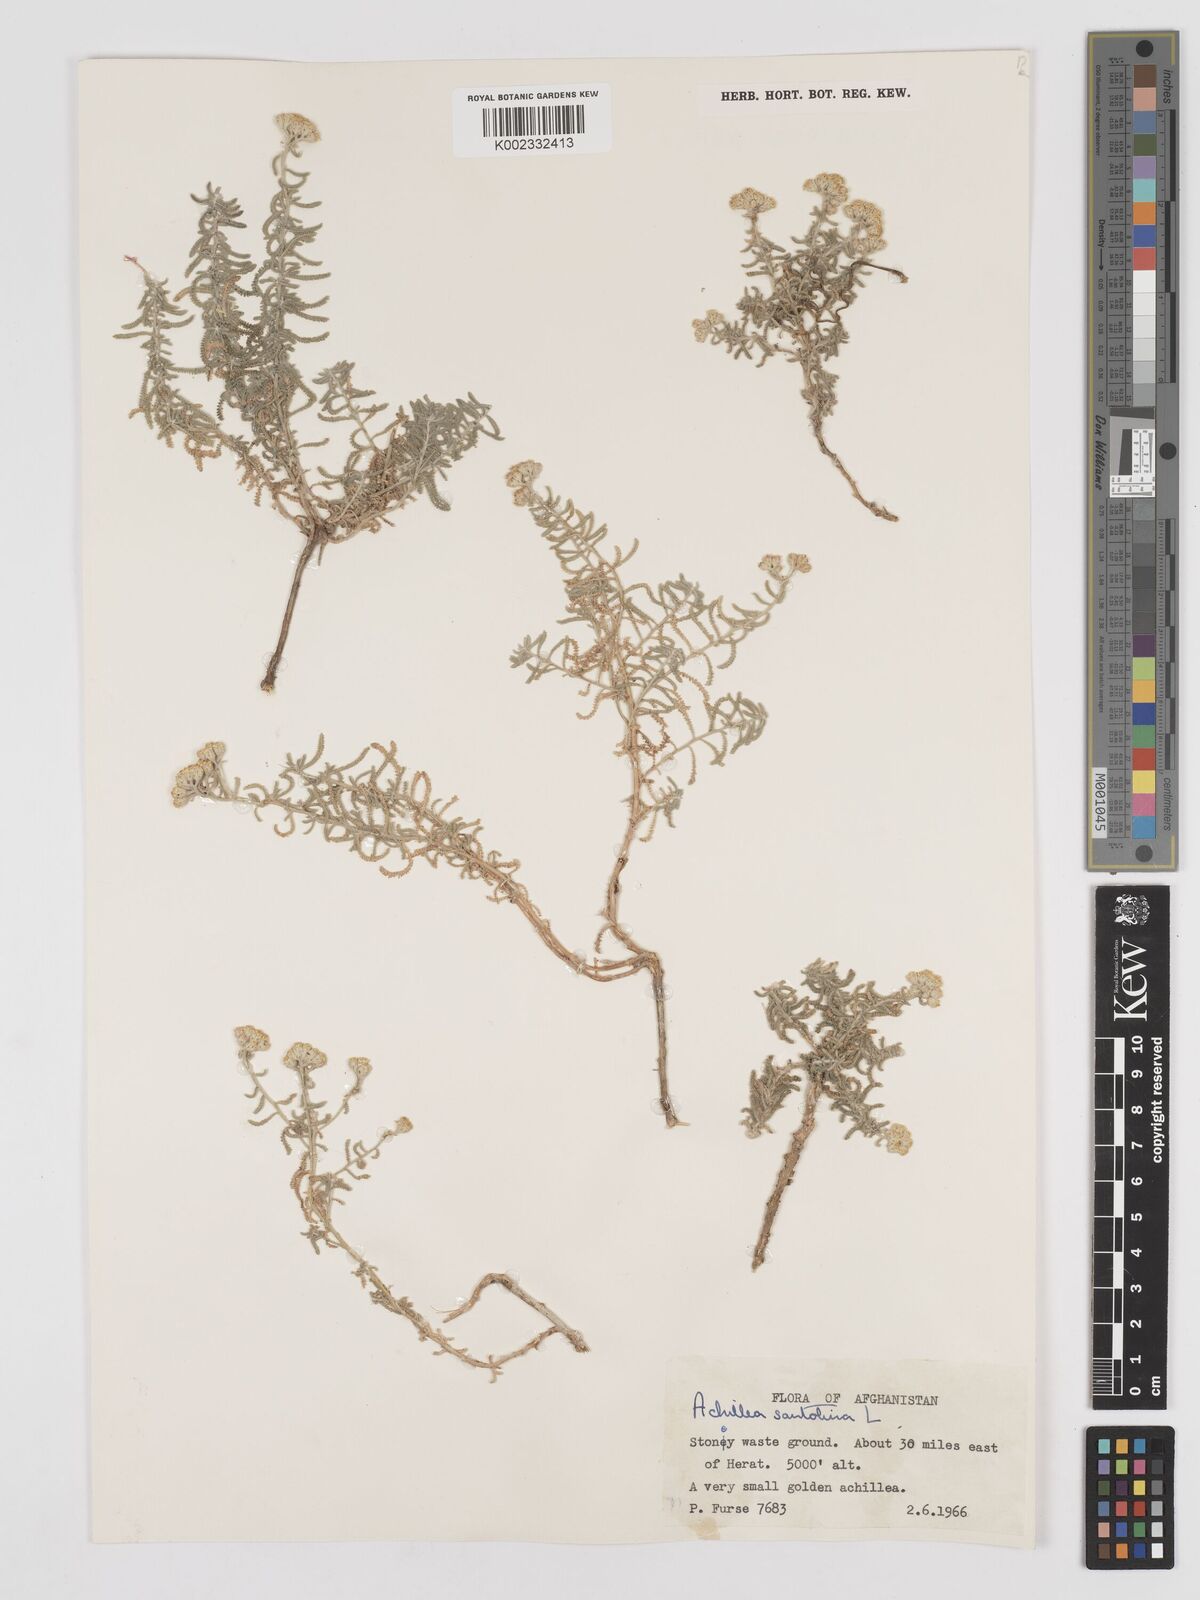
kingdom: Plantae
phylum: Tracheophyta
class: Magnoliopsida
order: Asterales
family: Asteraceae
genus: Achillea
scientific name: Achillea tenuifolia
